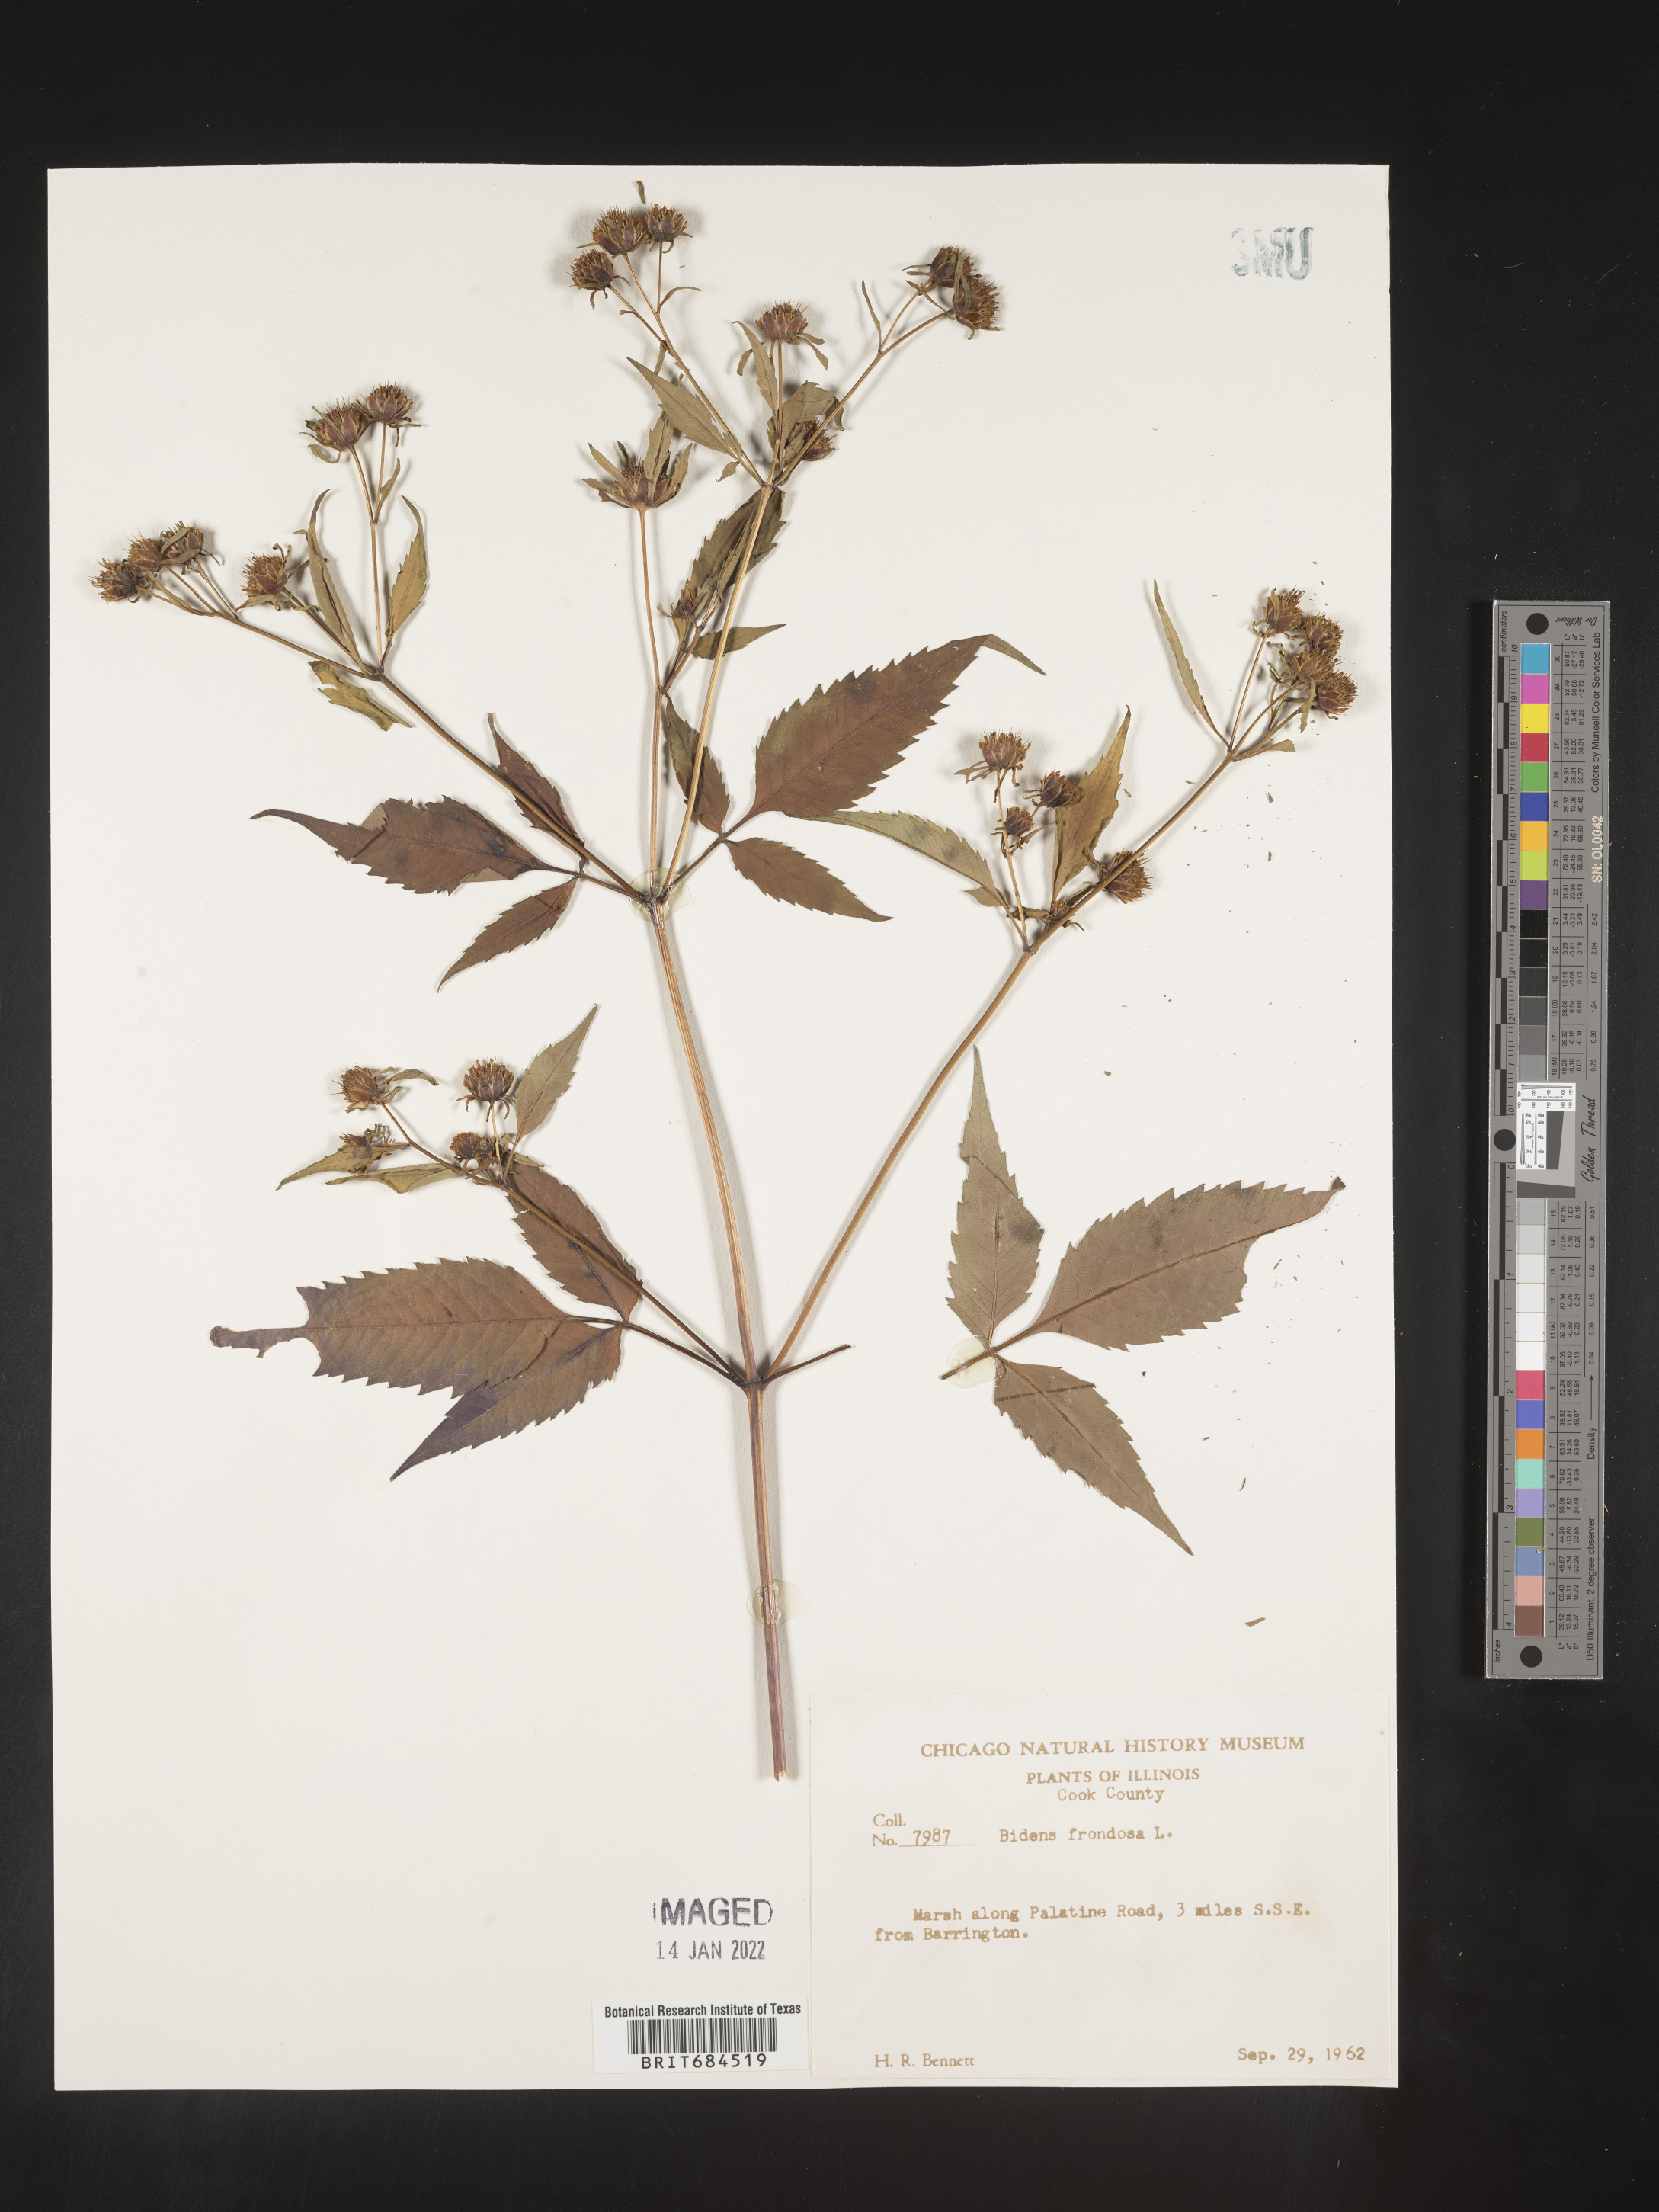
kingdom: Plantae
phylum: Tracheophyta
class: Magnoliopsida
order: Asterales
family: Asteraceae
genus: Bidens
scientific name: Bidens frondosa
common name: Beggarticks
